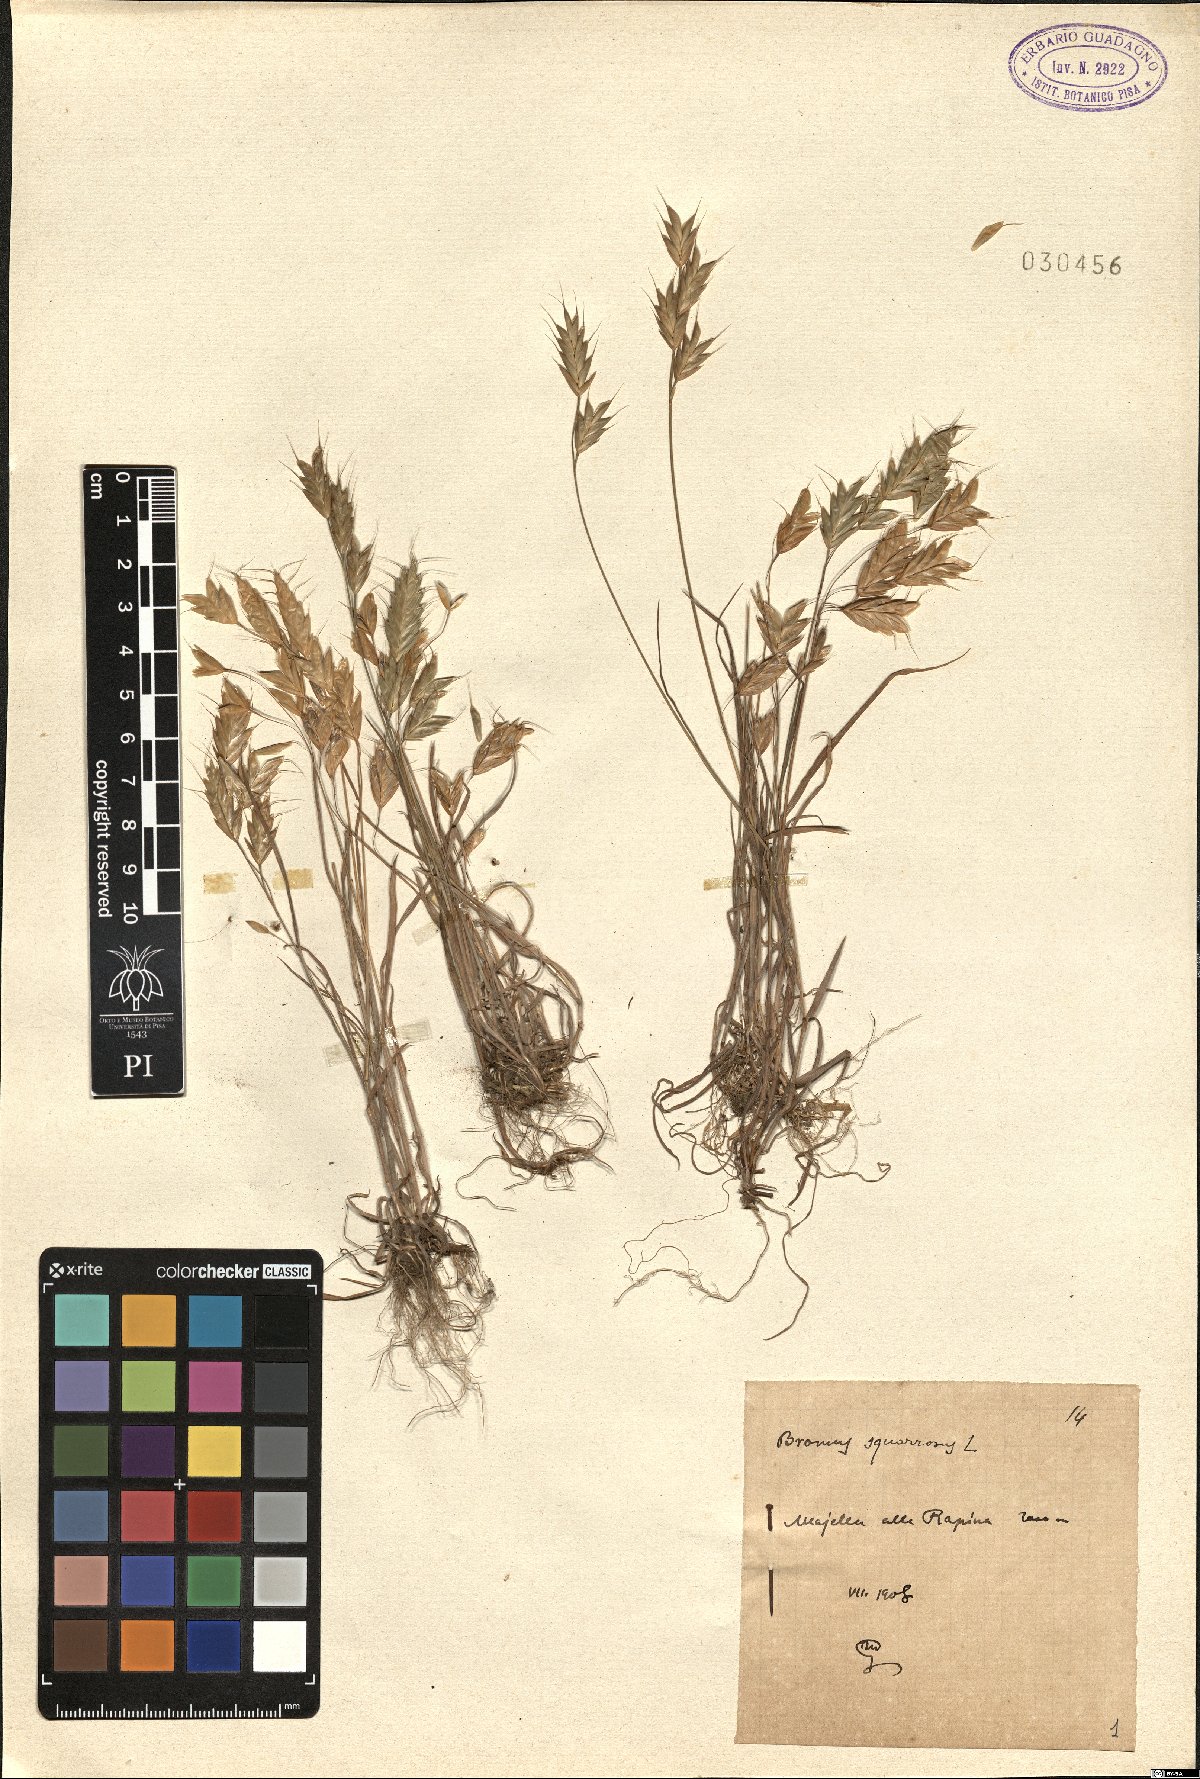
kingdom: Plantae
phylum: Tracheophyta
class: Liliopsida
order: Poales
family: Poaceae
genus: Bromus
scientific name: Bromus squarrosus
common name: Corn brome
